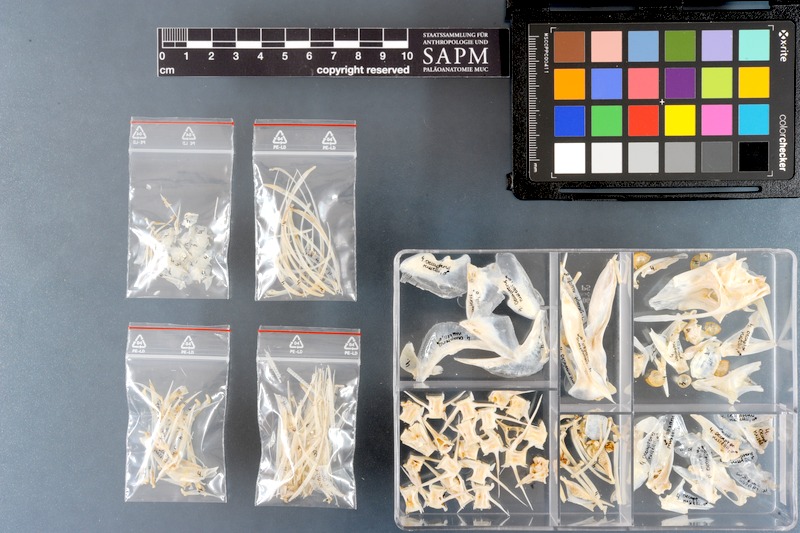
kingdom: Animalia
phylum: Chordata
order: Perciformes
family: Carangidae
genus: Decapterus
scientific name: Decapterus russelli
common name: Indian scad
